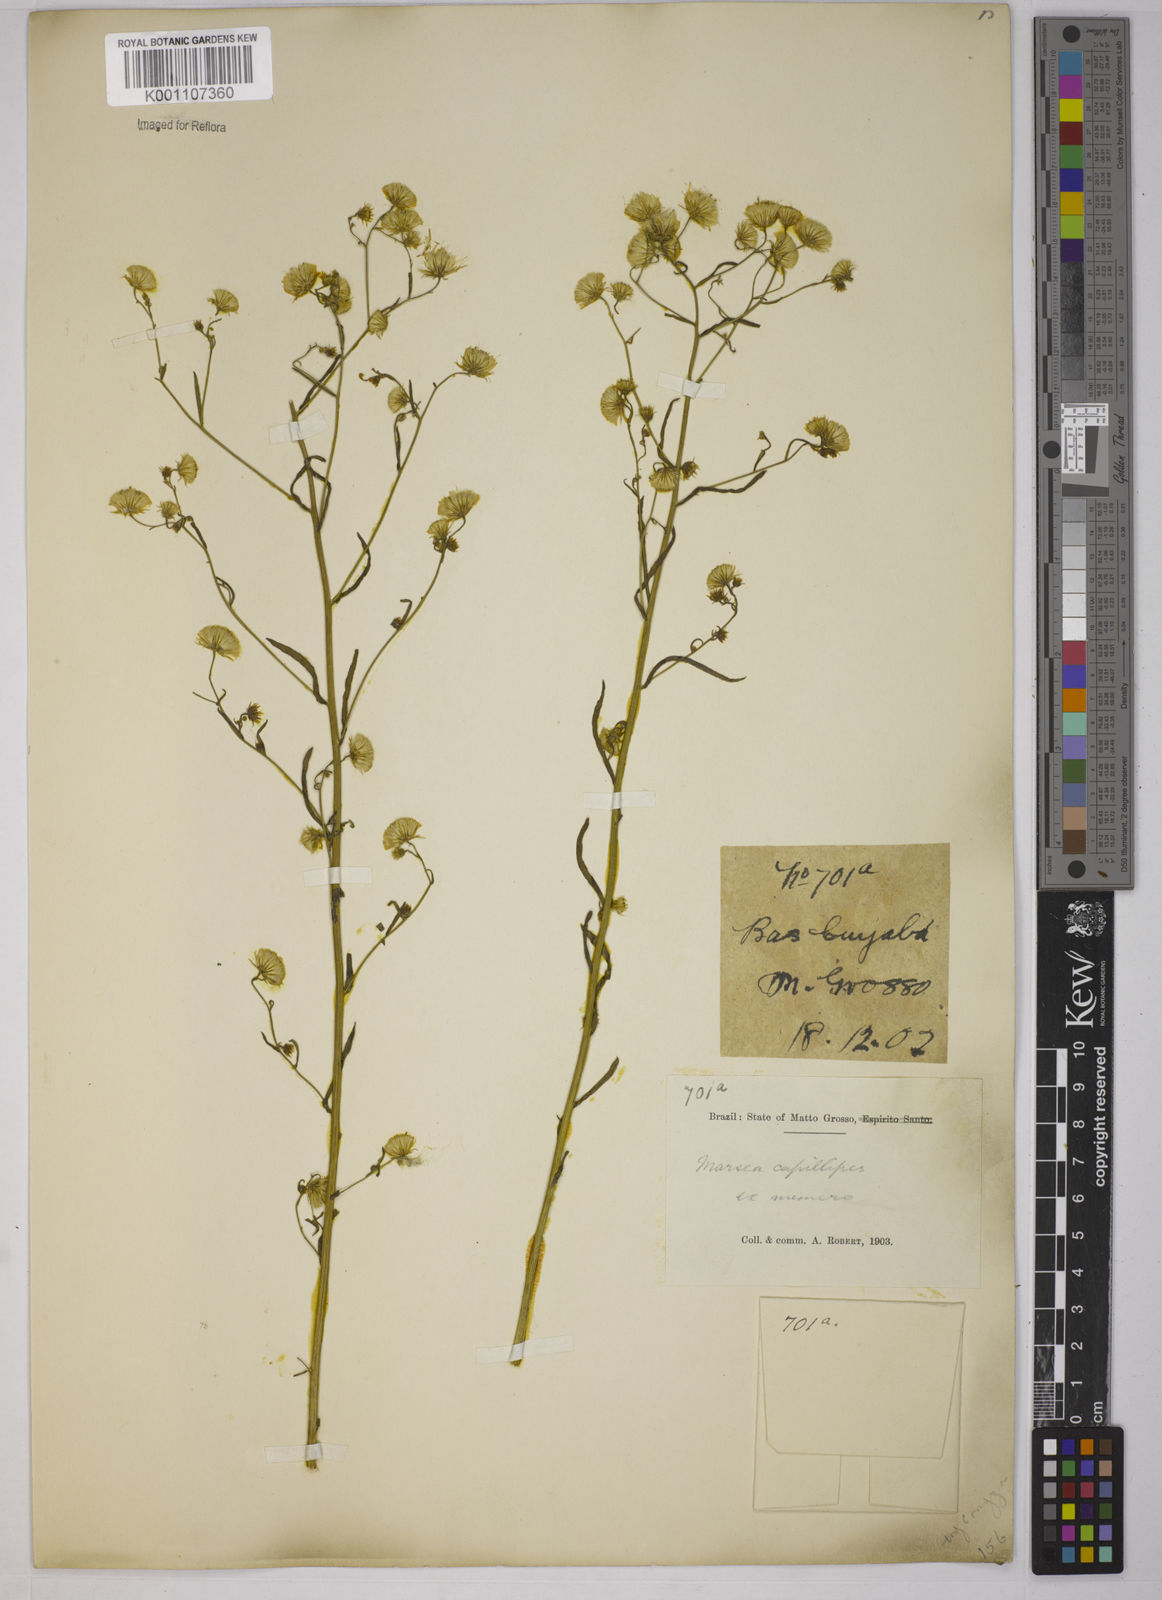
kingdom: Plantae
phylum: Tracheophyta
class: Magnoliopsida
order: Asterales
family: Asteraceae
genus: Erigeron
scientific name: Erigeron capillipes
